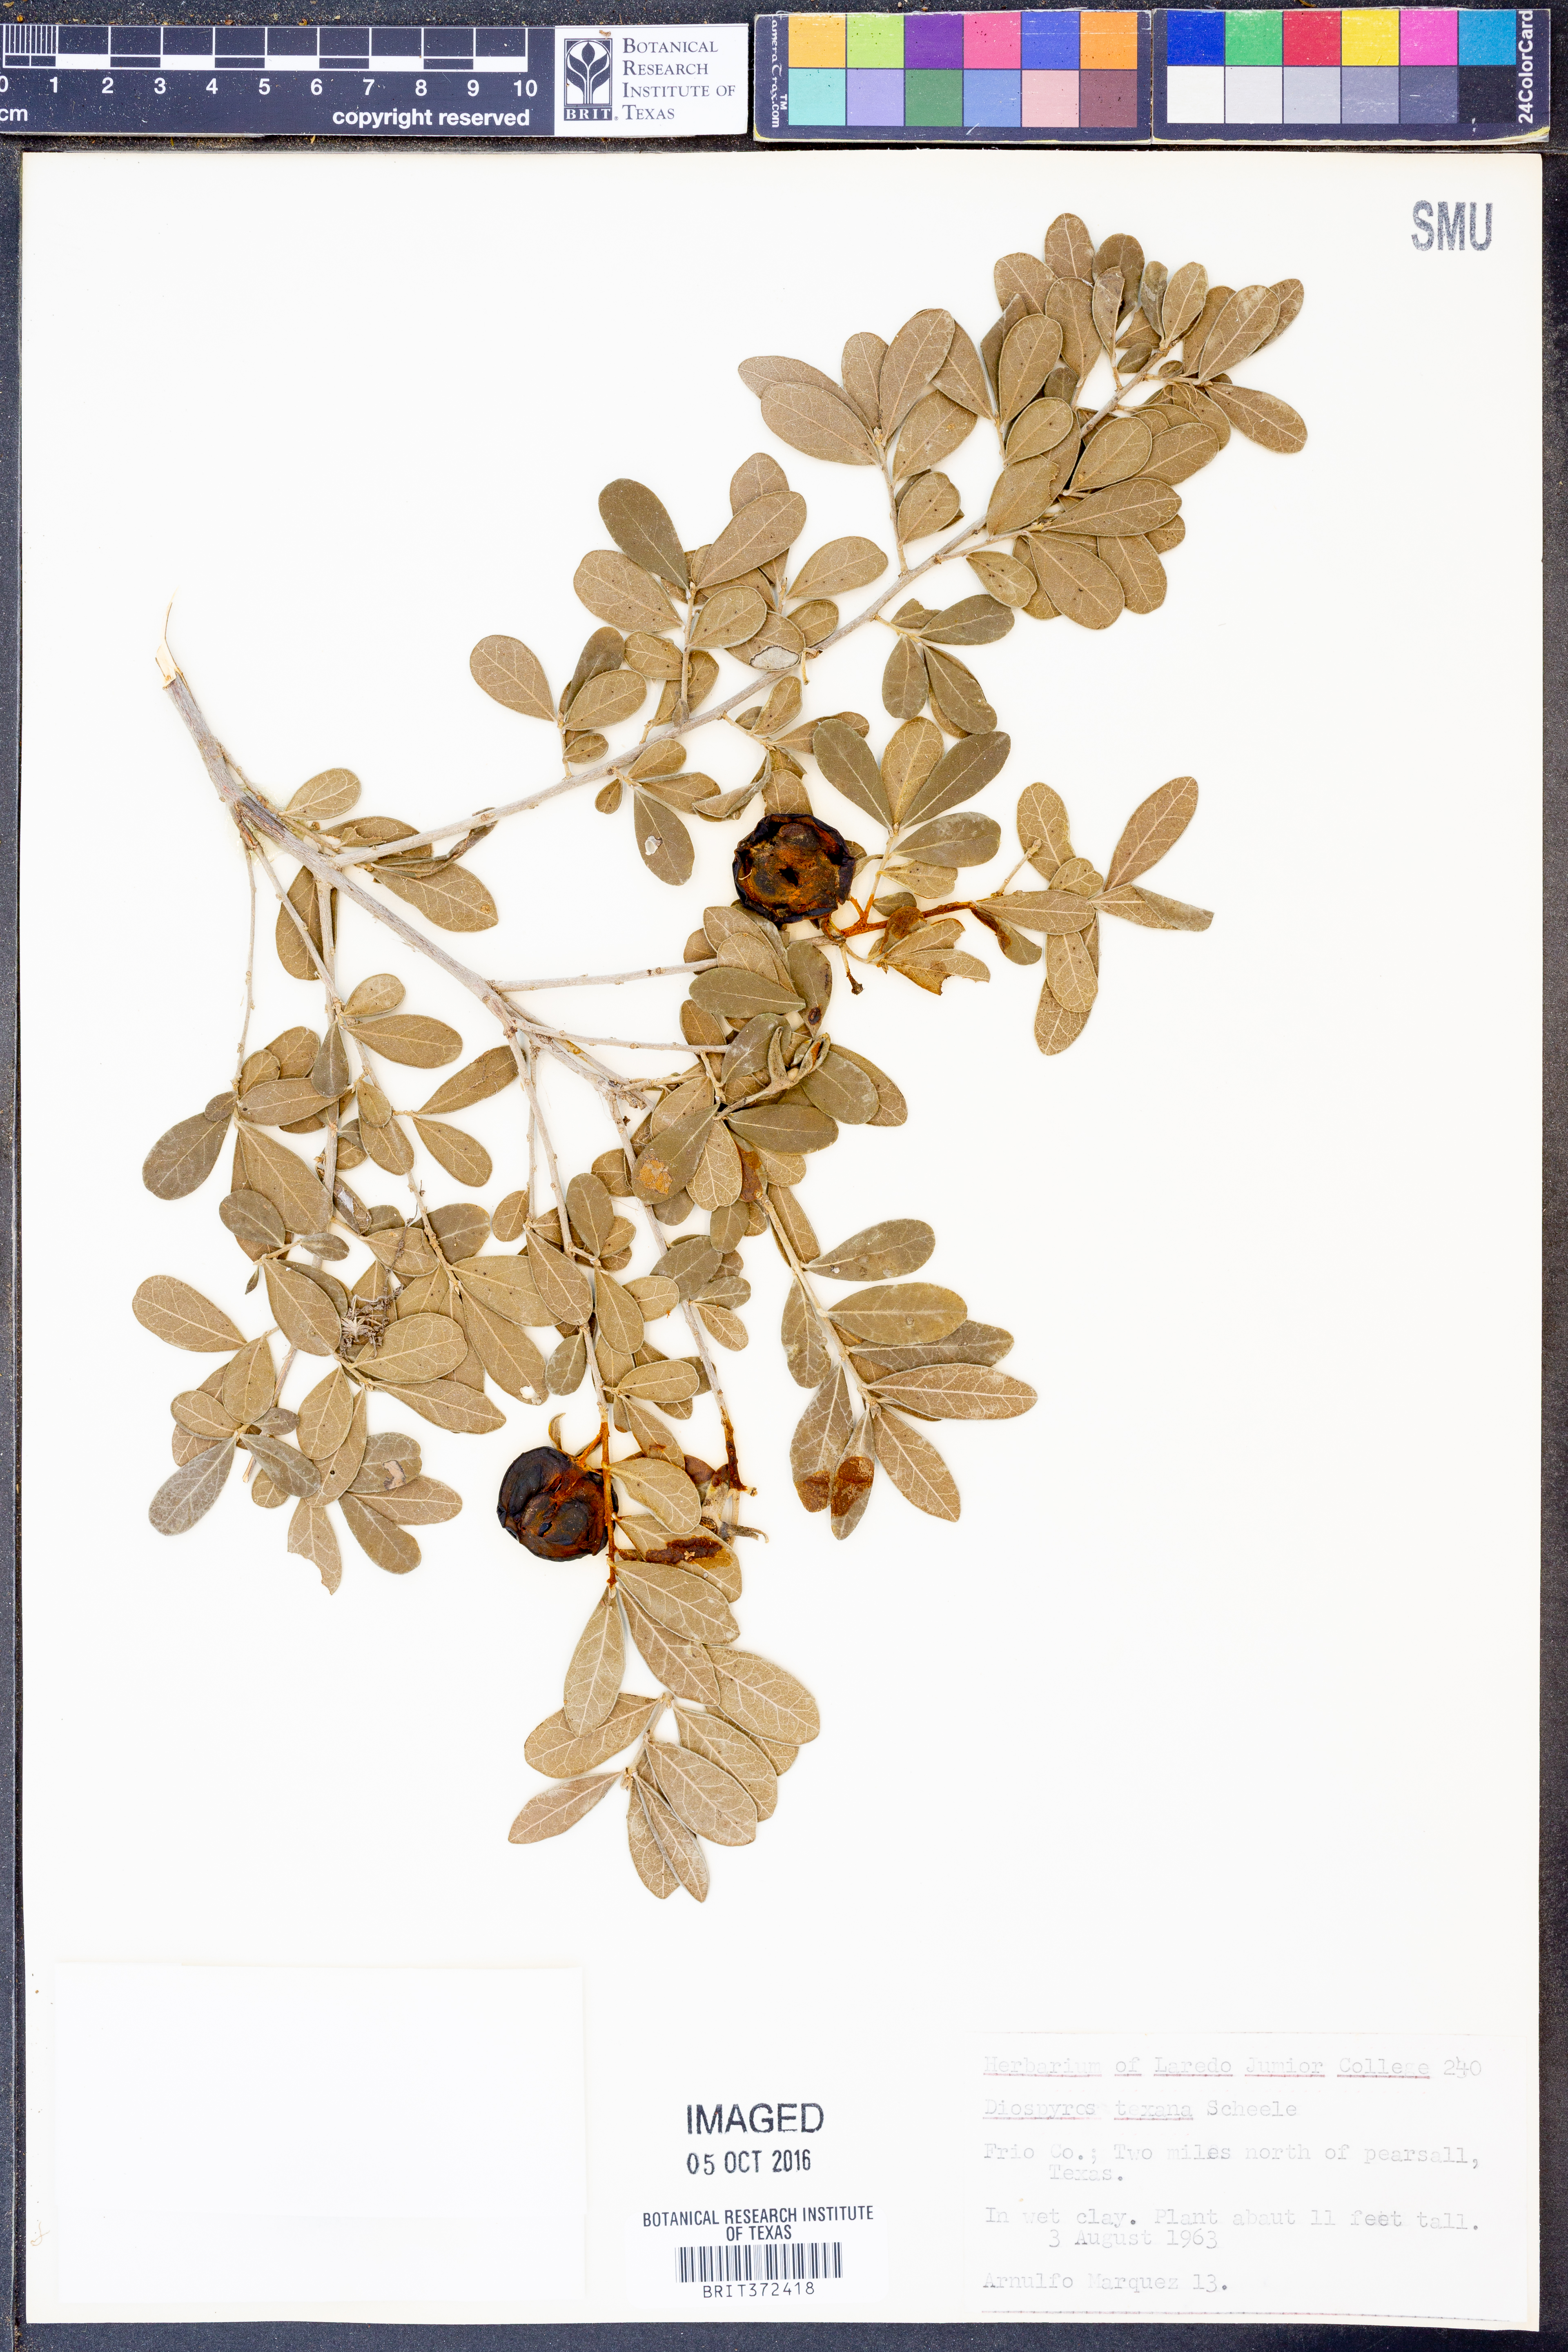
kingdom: Plantae
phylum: Tracheophyta
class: Magnoliopsida
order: Ericales
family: Ebenaceae
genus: Diospyros
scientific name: Diospyros texana
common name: Texas persimmon
